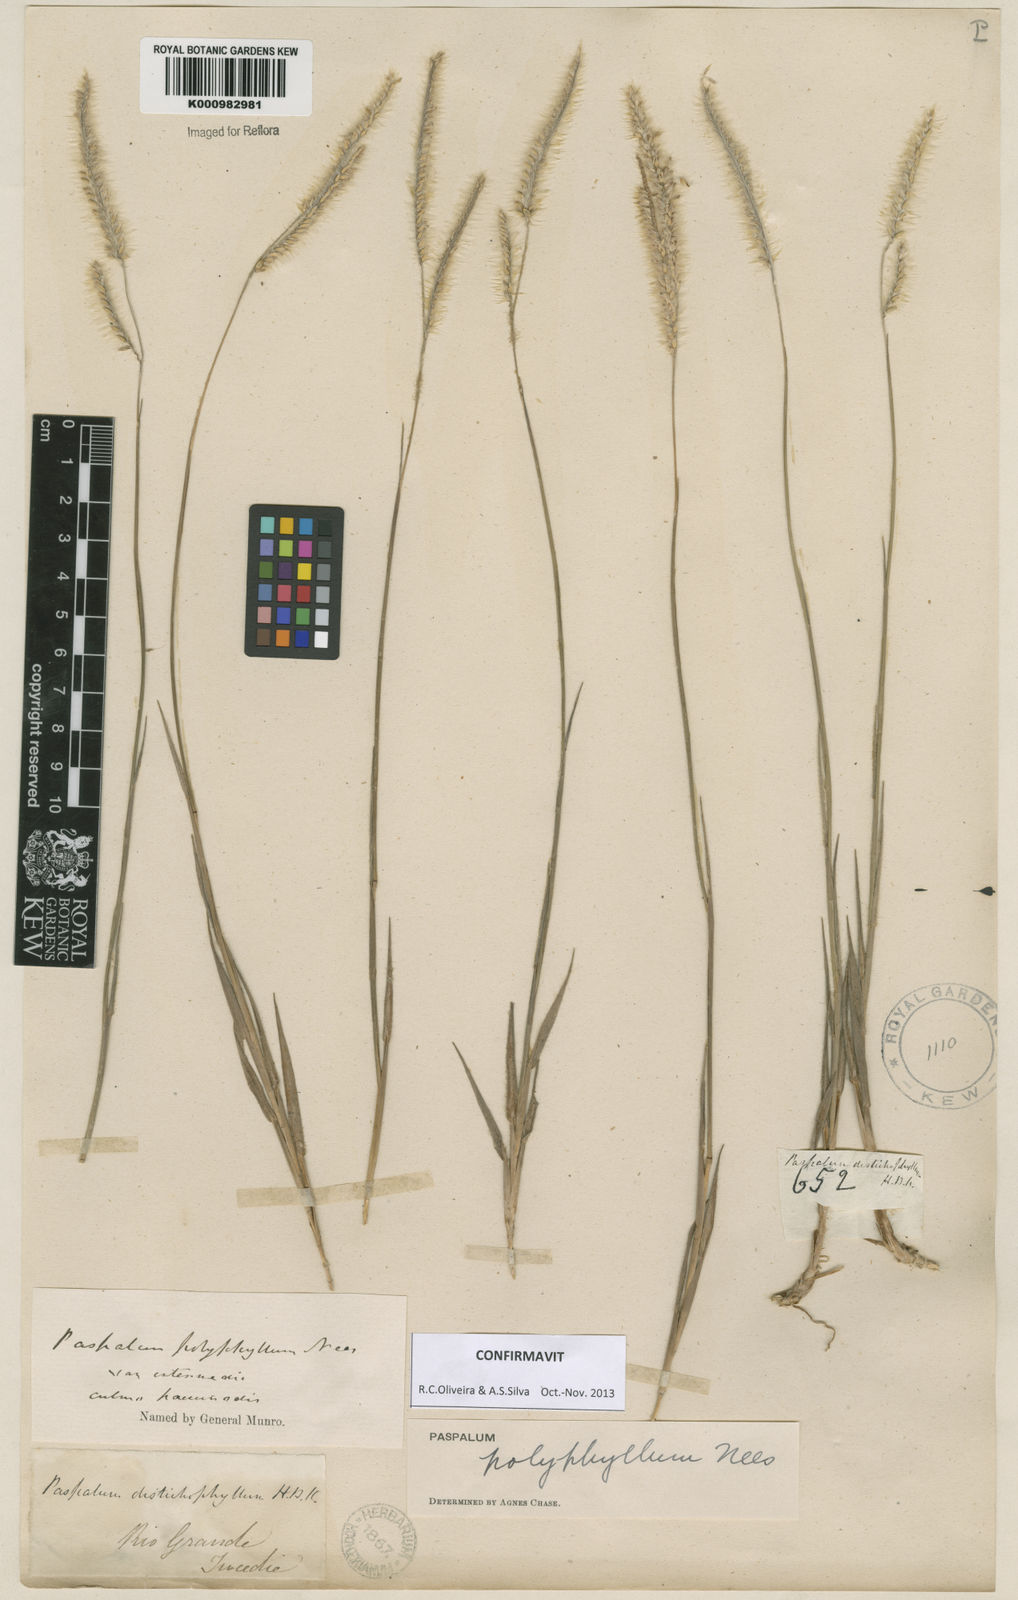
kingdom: Plantae
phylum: Tracheophyta
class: Liliopsida
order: Poales
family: Poaceae
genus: Paspalum
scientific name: Paspalum
